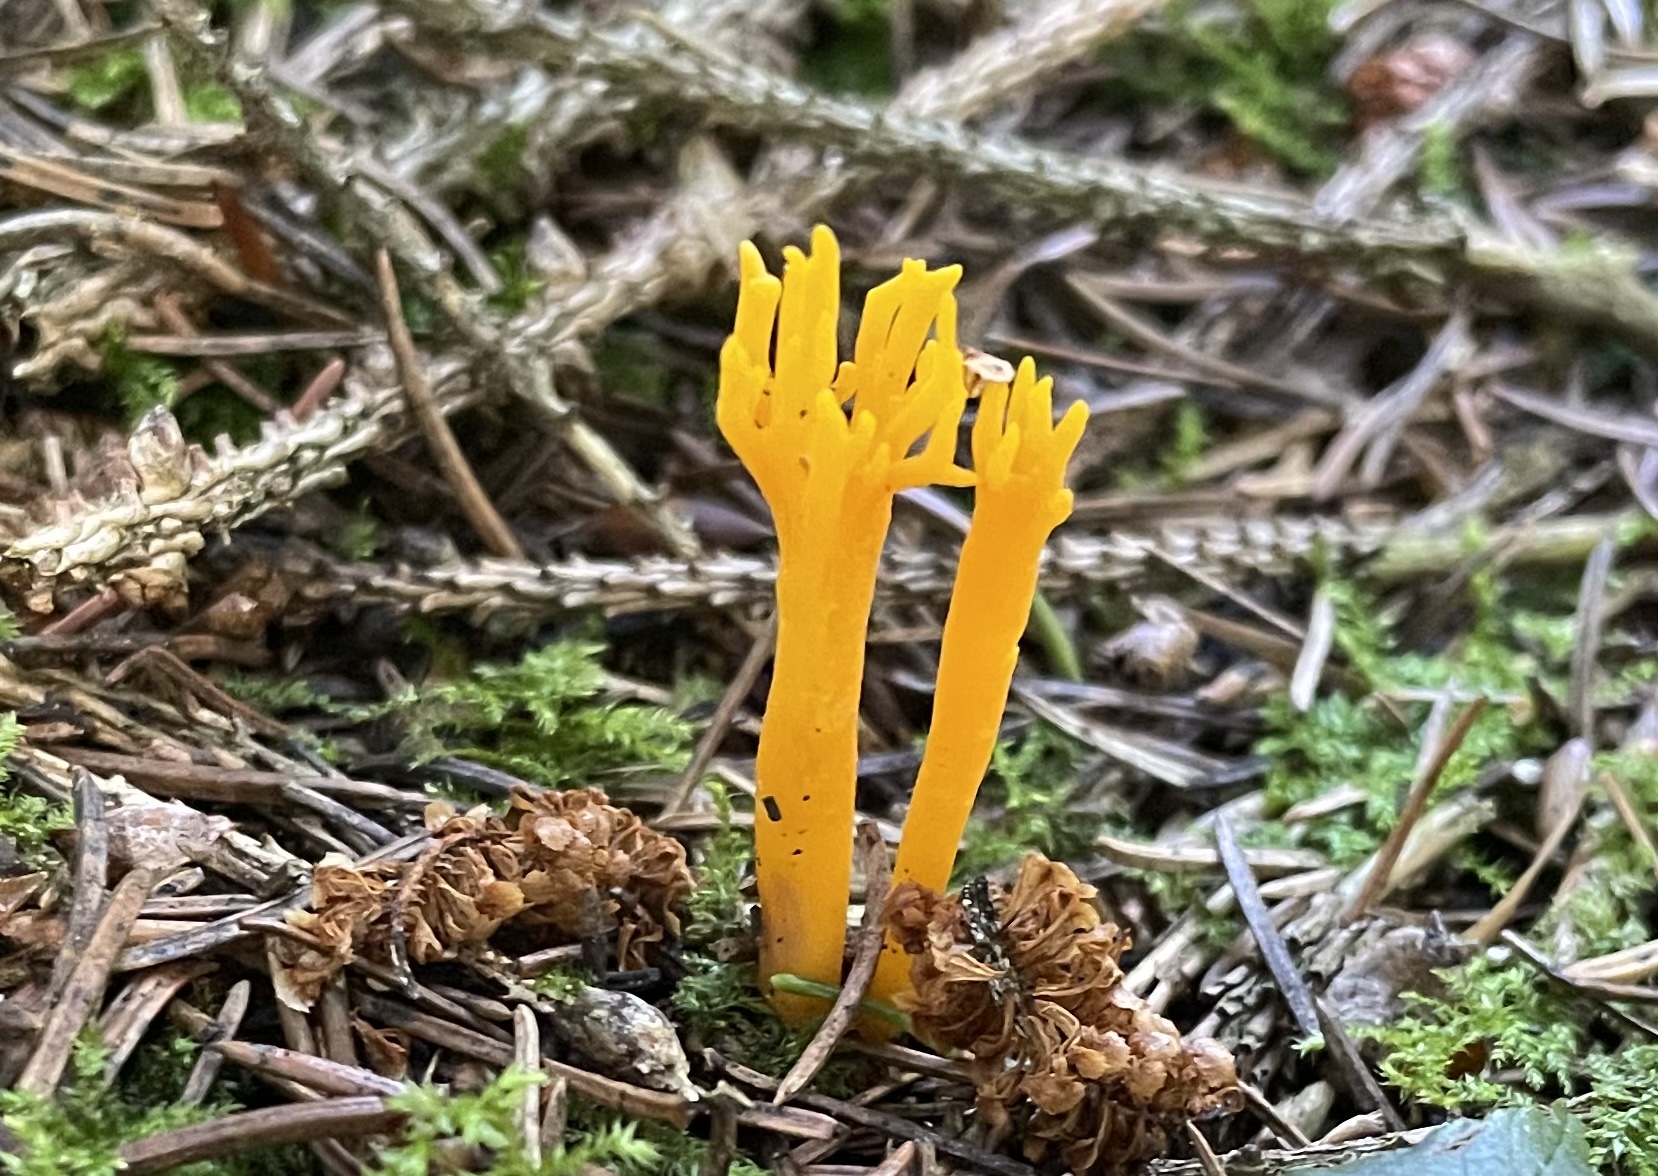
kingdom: Fungi
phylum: Basidiomycota
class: Dacrymycetes
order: Dacrymycetales
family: Dacrymycetaceae
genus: Calocera
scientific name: Calocera viscosa
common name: almindelig guldgaffel
